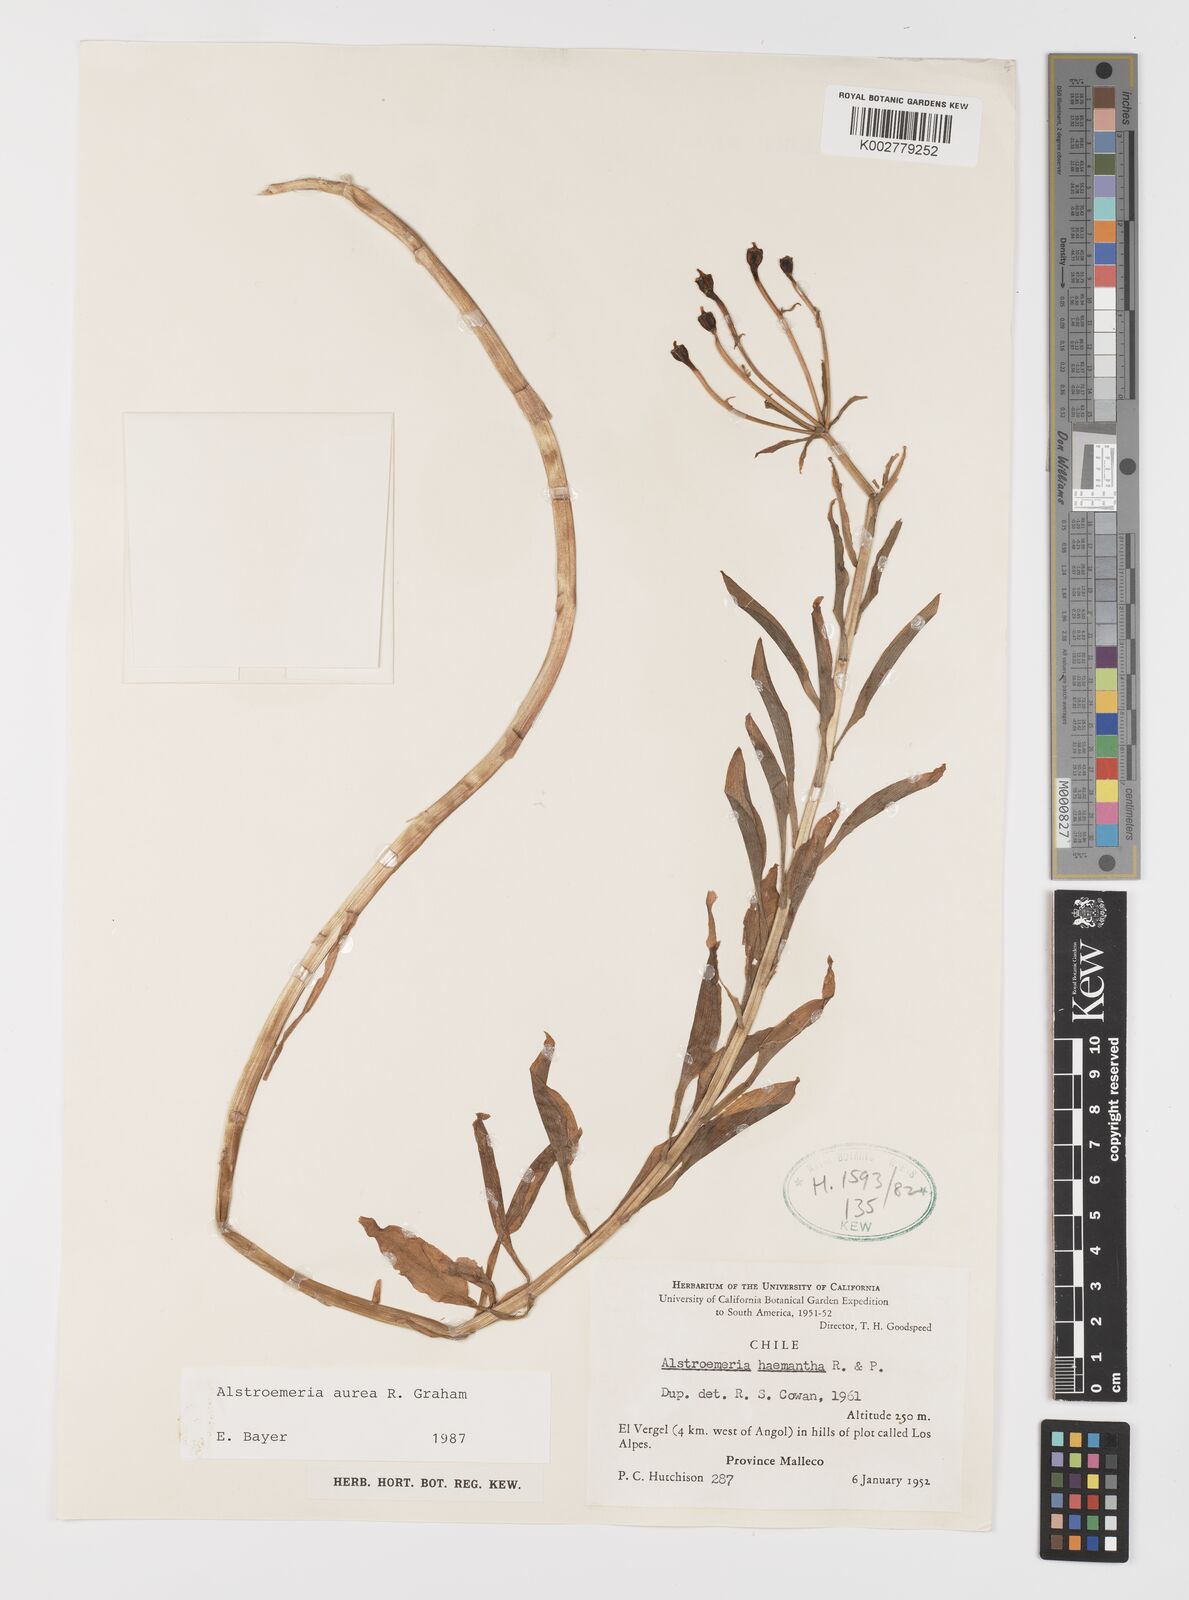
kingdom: Plantae
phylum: Tracheophyta
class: Liliopsida
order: Liliales
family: Alstroemeriaceae
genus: Alstroemeria
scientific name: Alstroemeria aurea
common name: Peruvian lily
